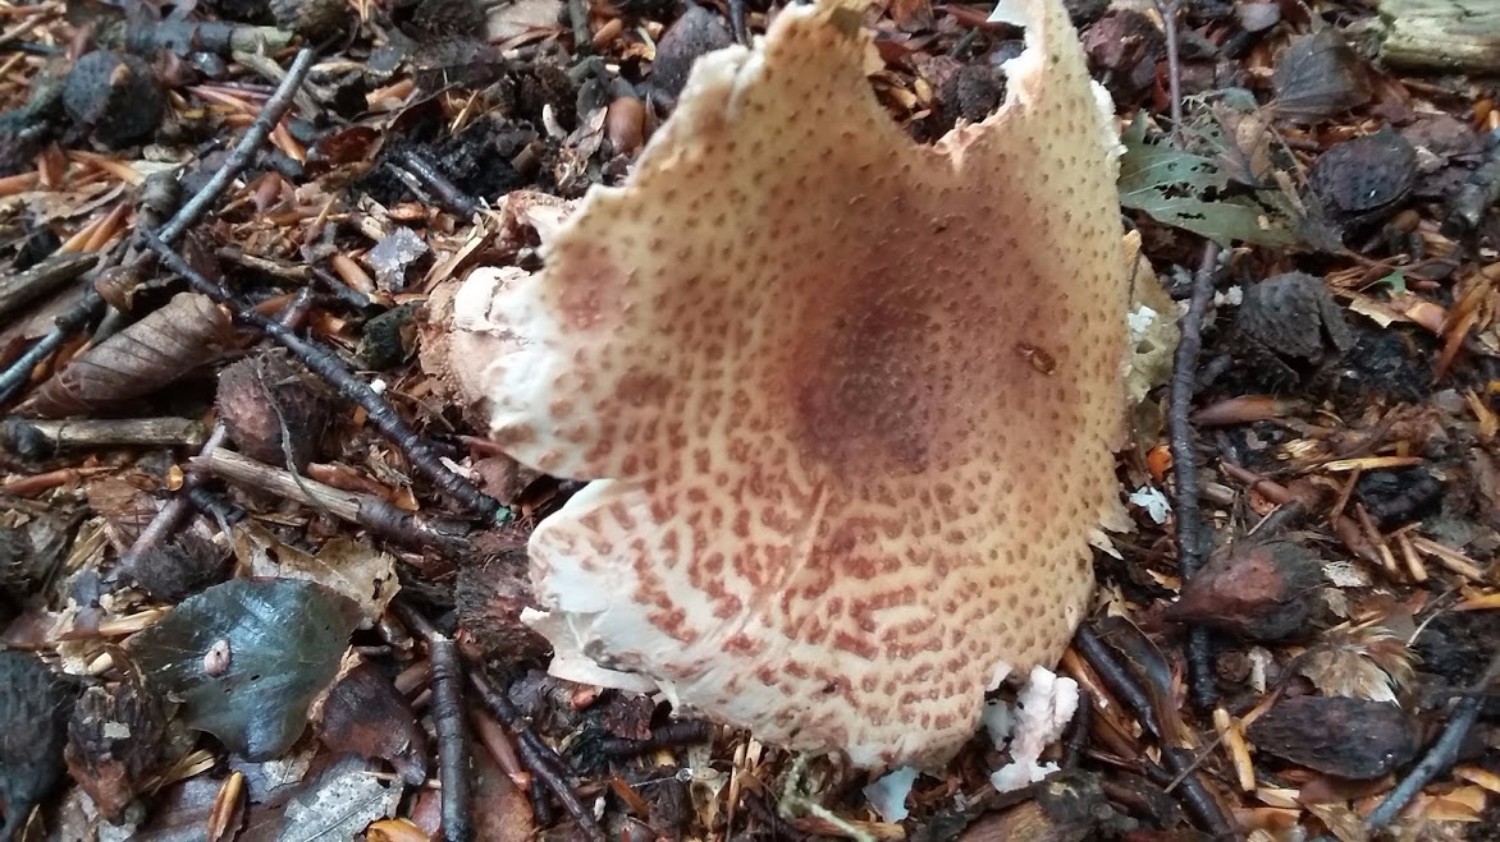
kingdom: Fungi
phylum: Basidiomycota
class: Agaricomycetes
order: Agaricales
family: Amanitaceae
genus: Amanita
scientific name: Amanita rubescens
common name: rødmende fluesvamp
